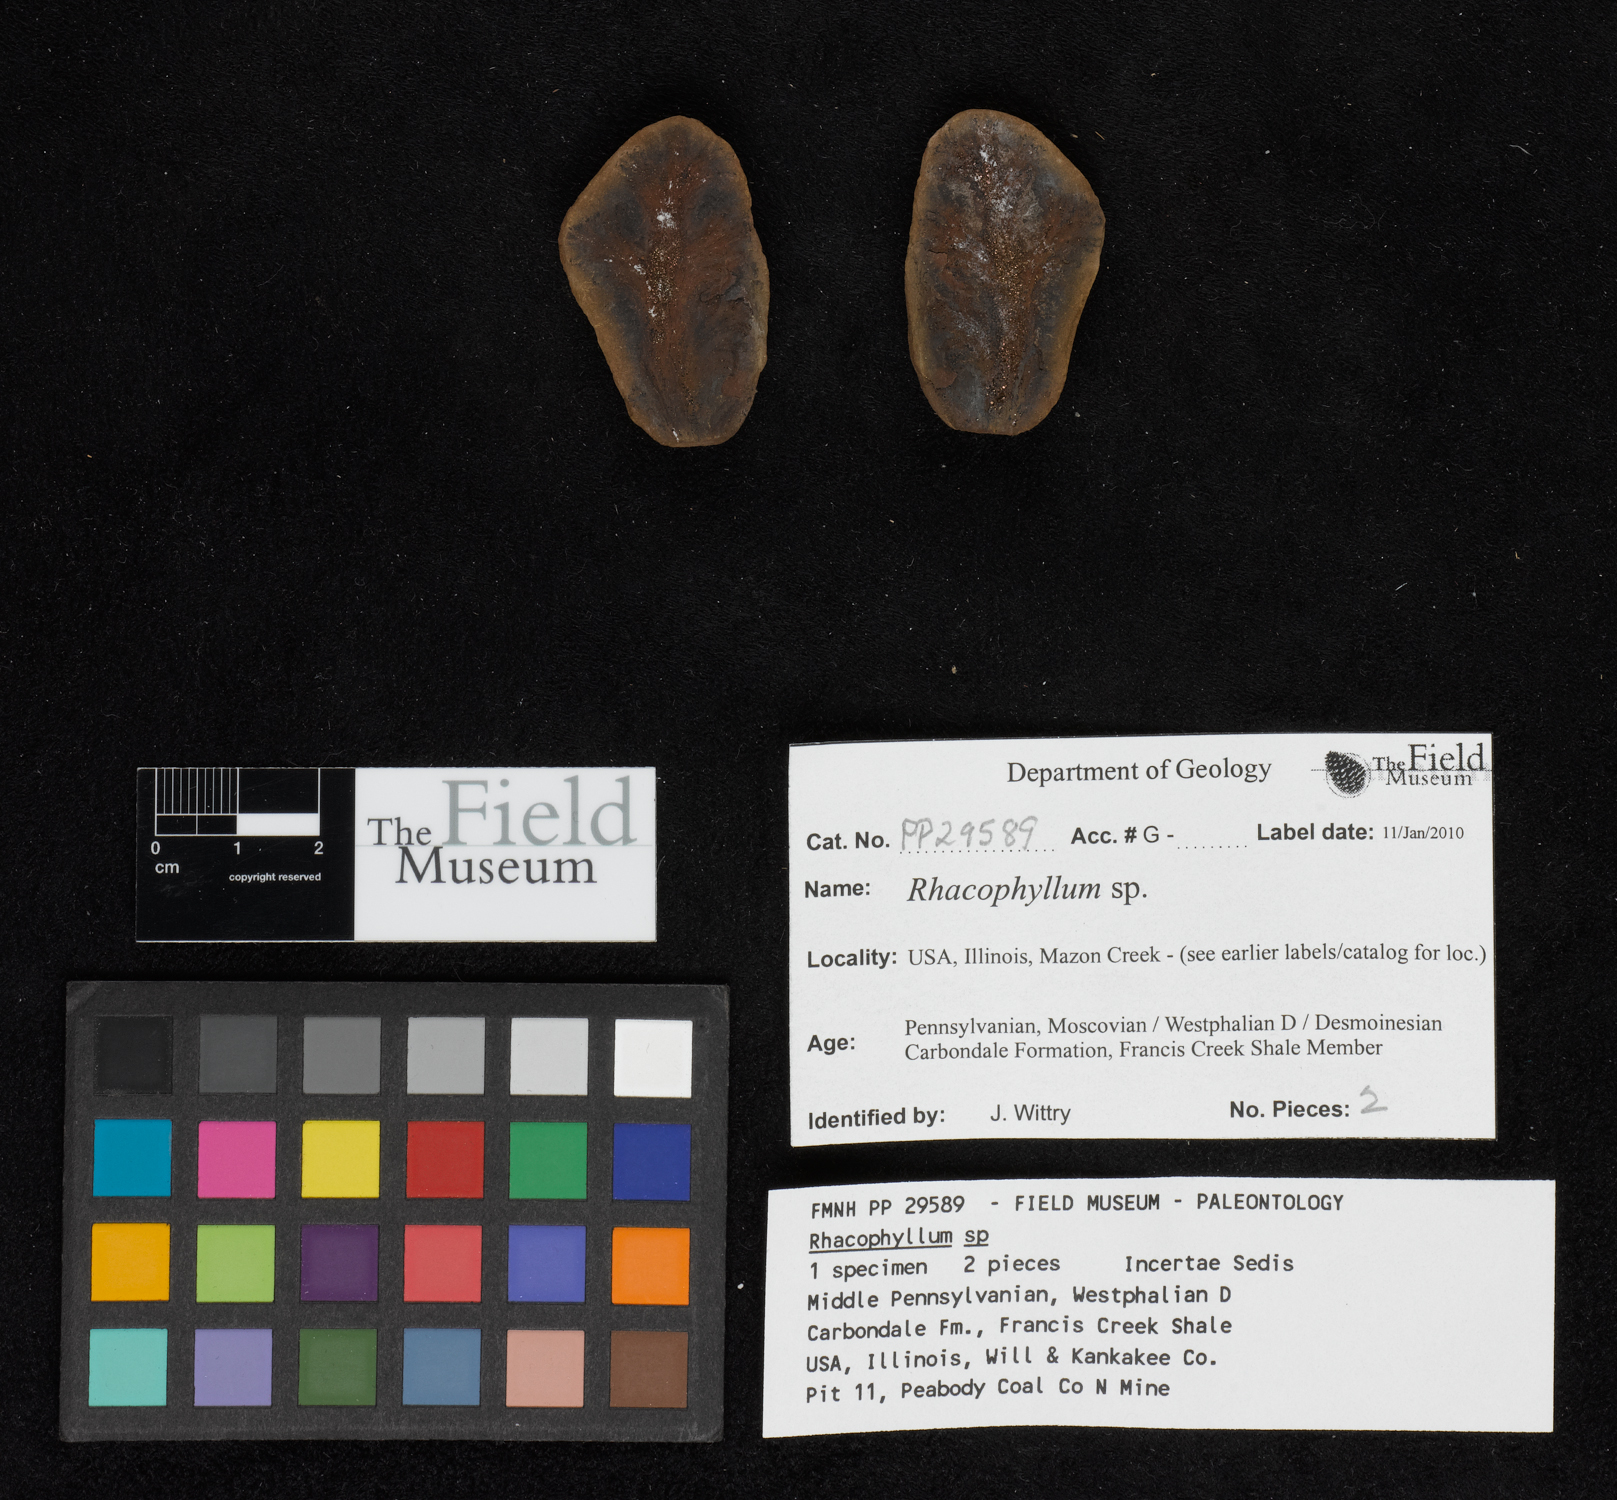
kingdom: Plantae
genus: Rhacophyllum
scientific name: Rhacophyllum
